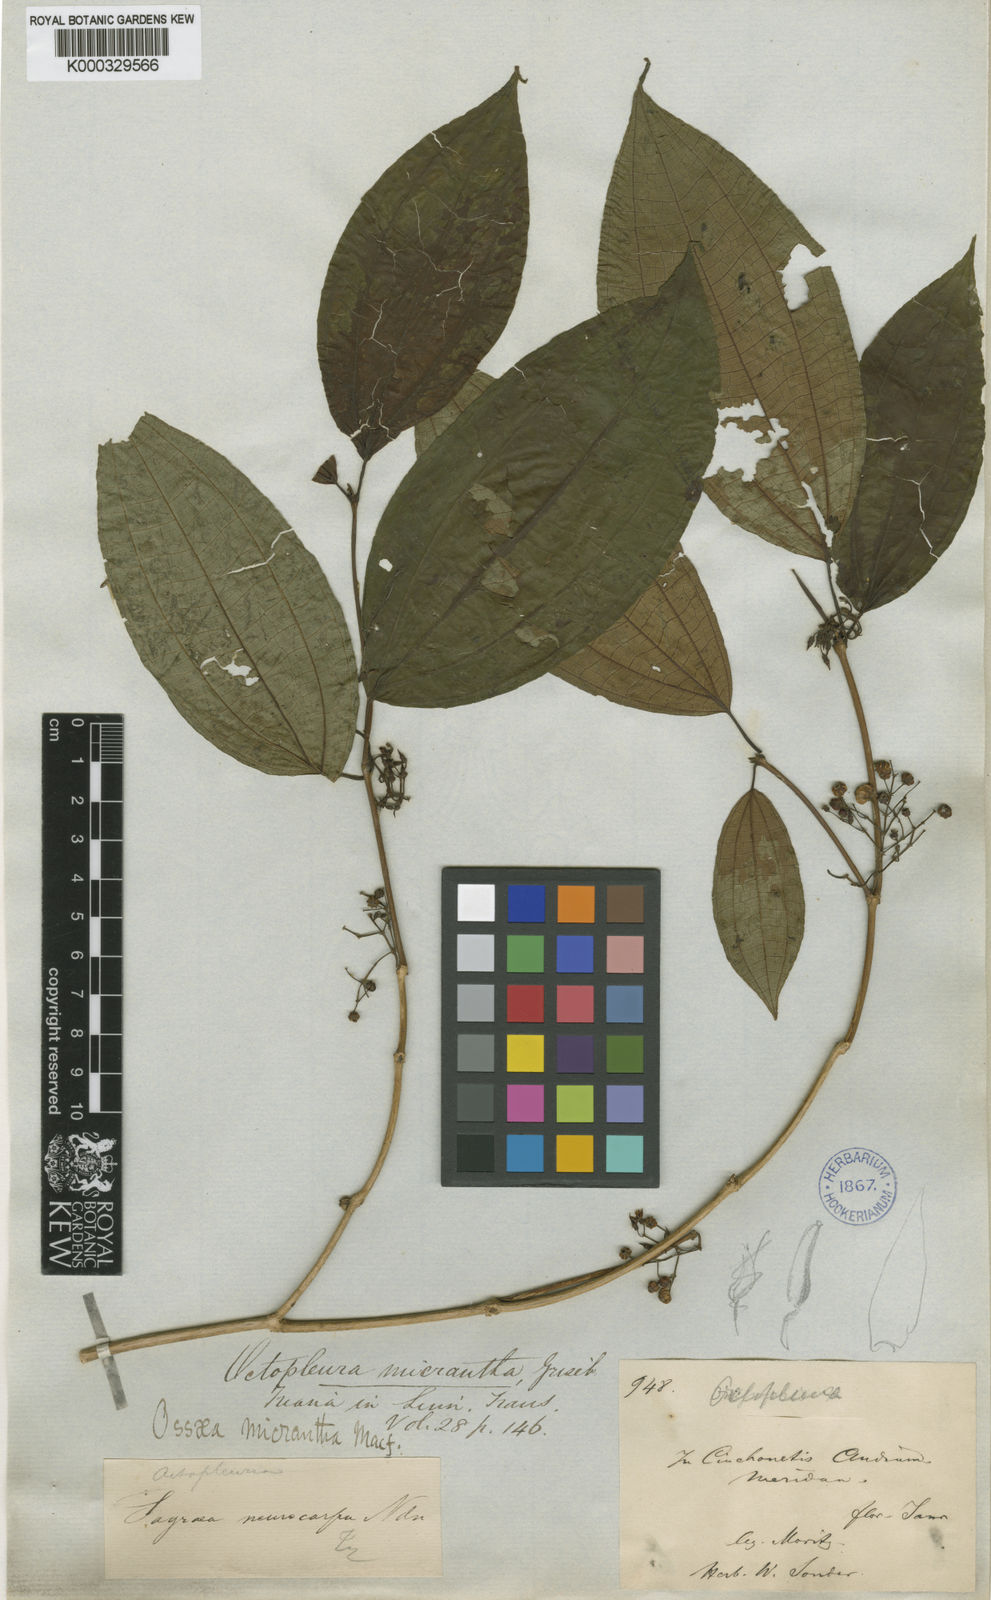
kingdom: Plantae
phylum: Tracheophyta
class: Magnoliopsida
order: Myrtales
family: Melastomataceae
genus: Ossaea
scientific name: Ossaea
